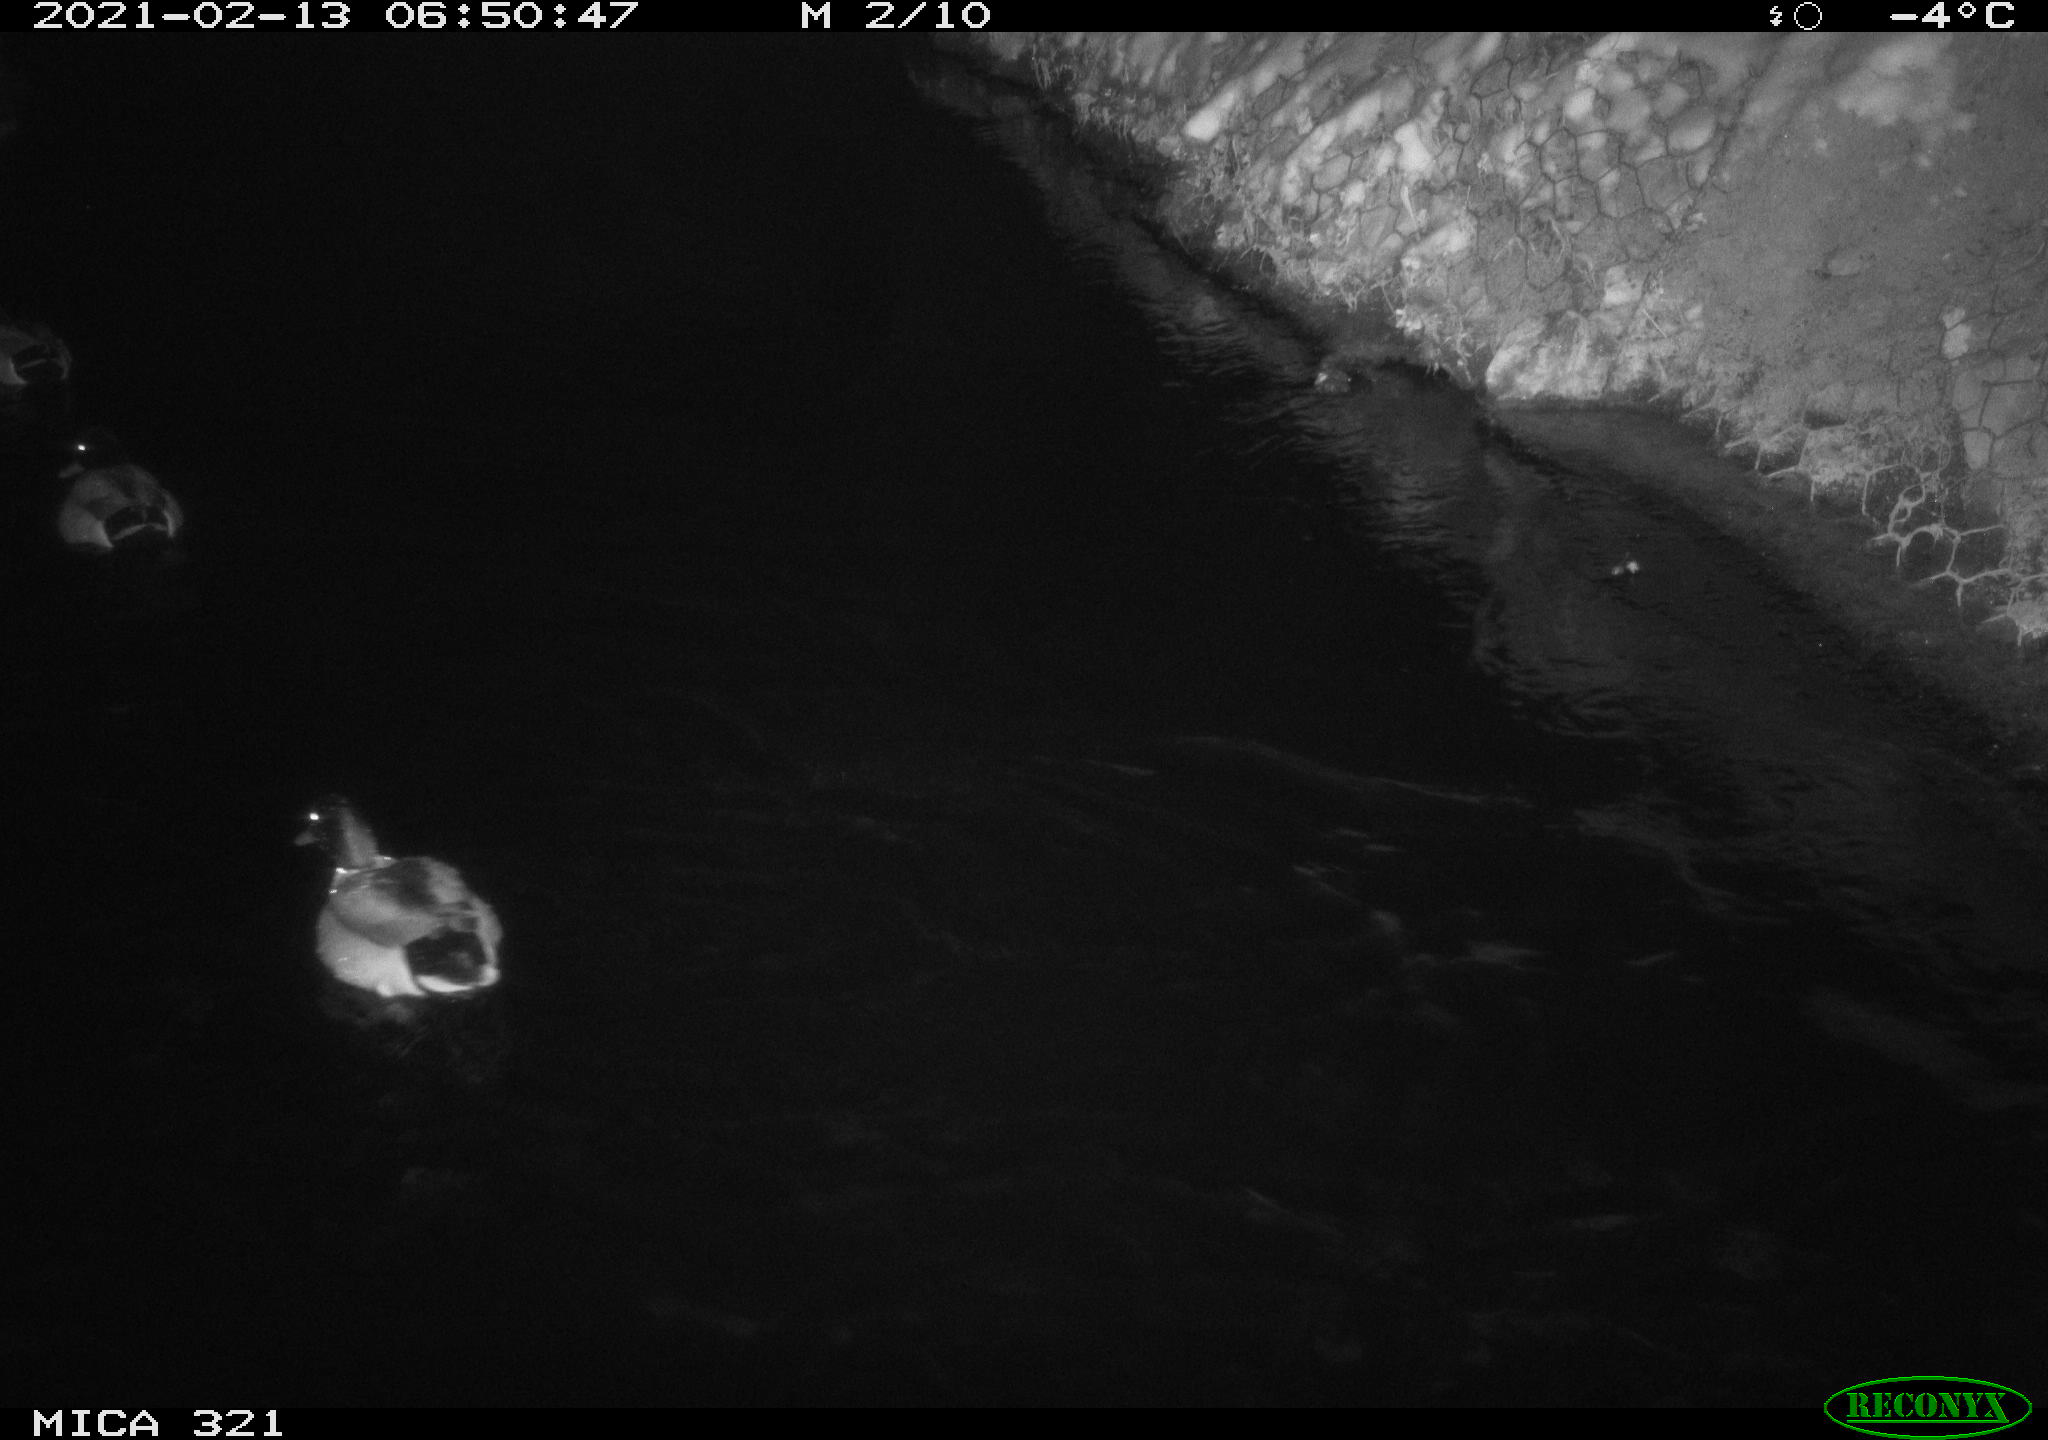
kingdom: Animalia
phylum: Chordata
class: Aves
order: Anseriformes
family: Anatidae
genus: Anas
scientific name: Anas platyrhynchos
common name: Mallard
